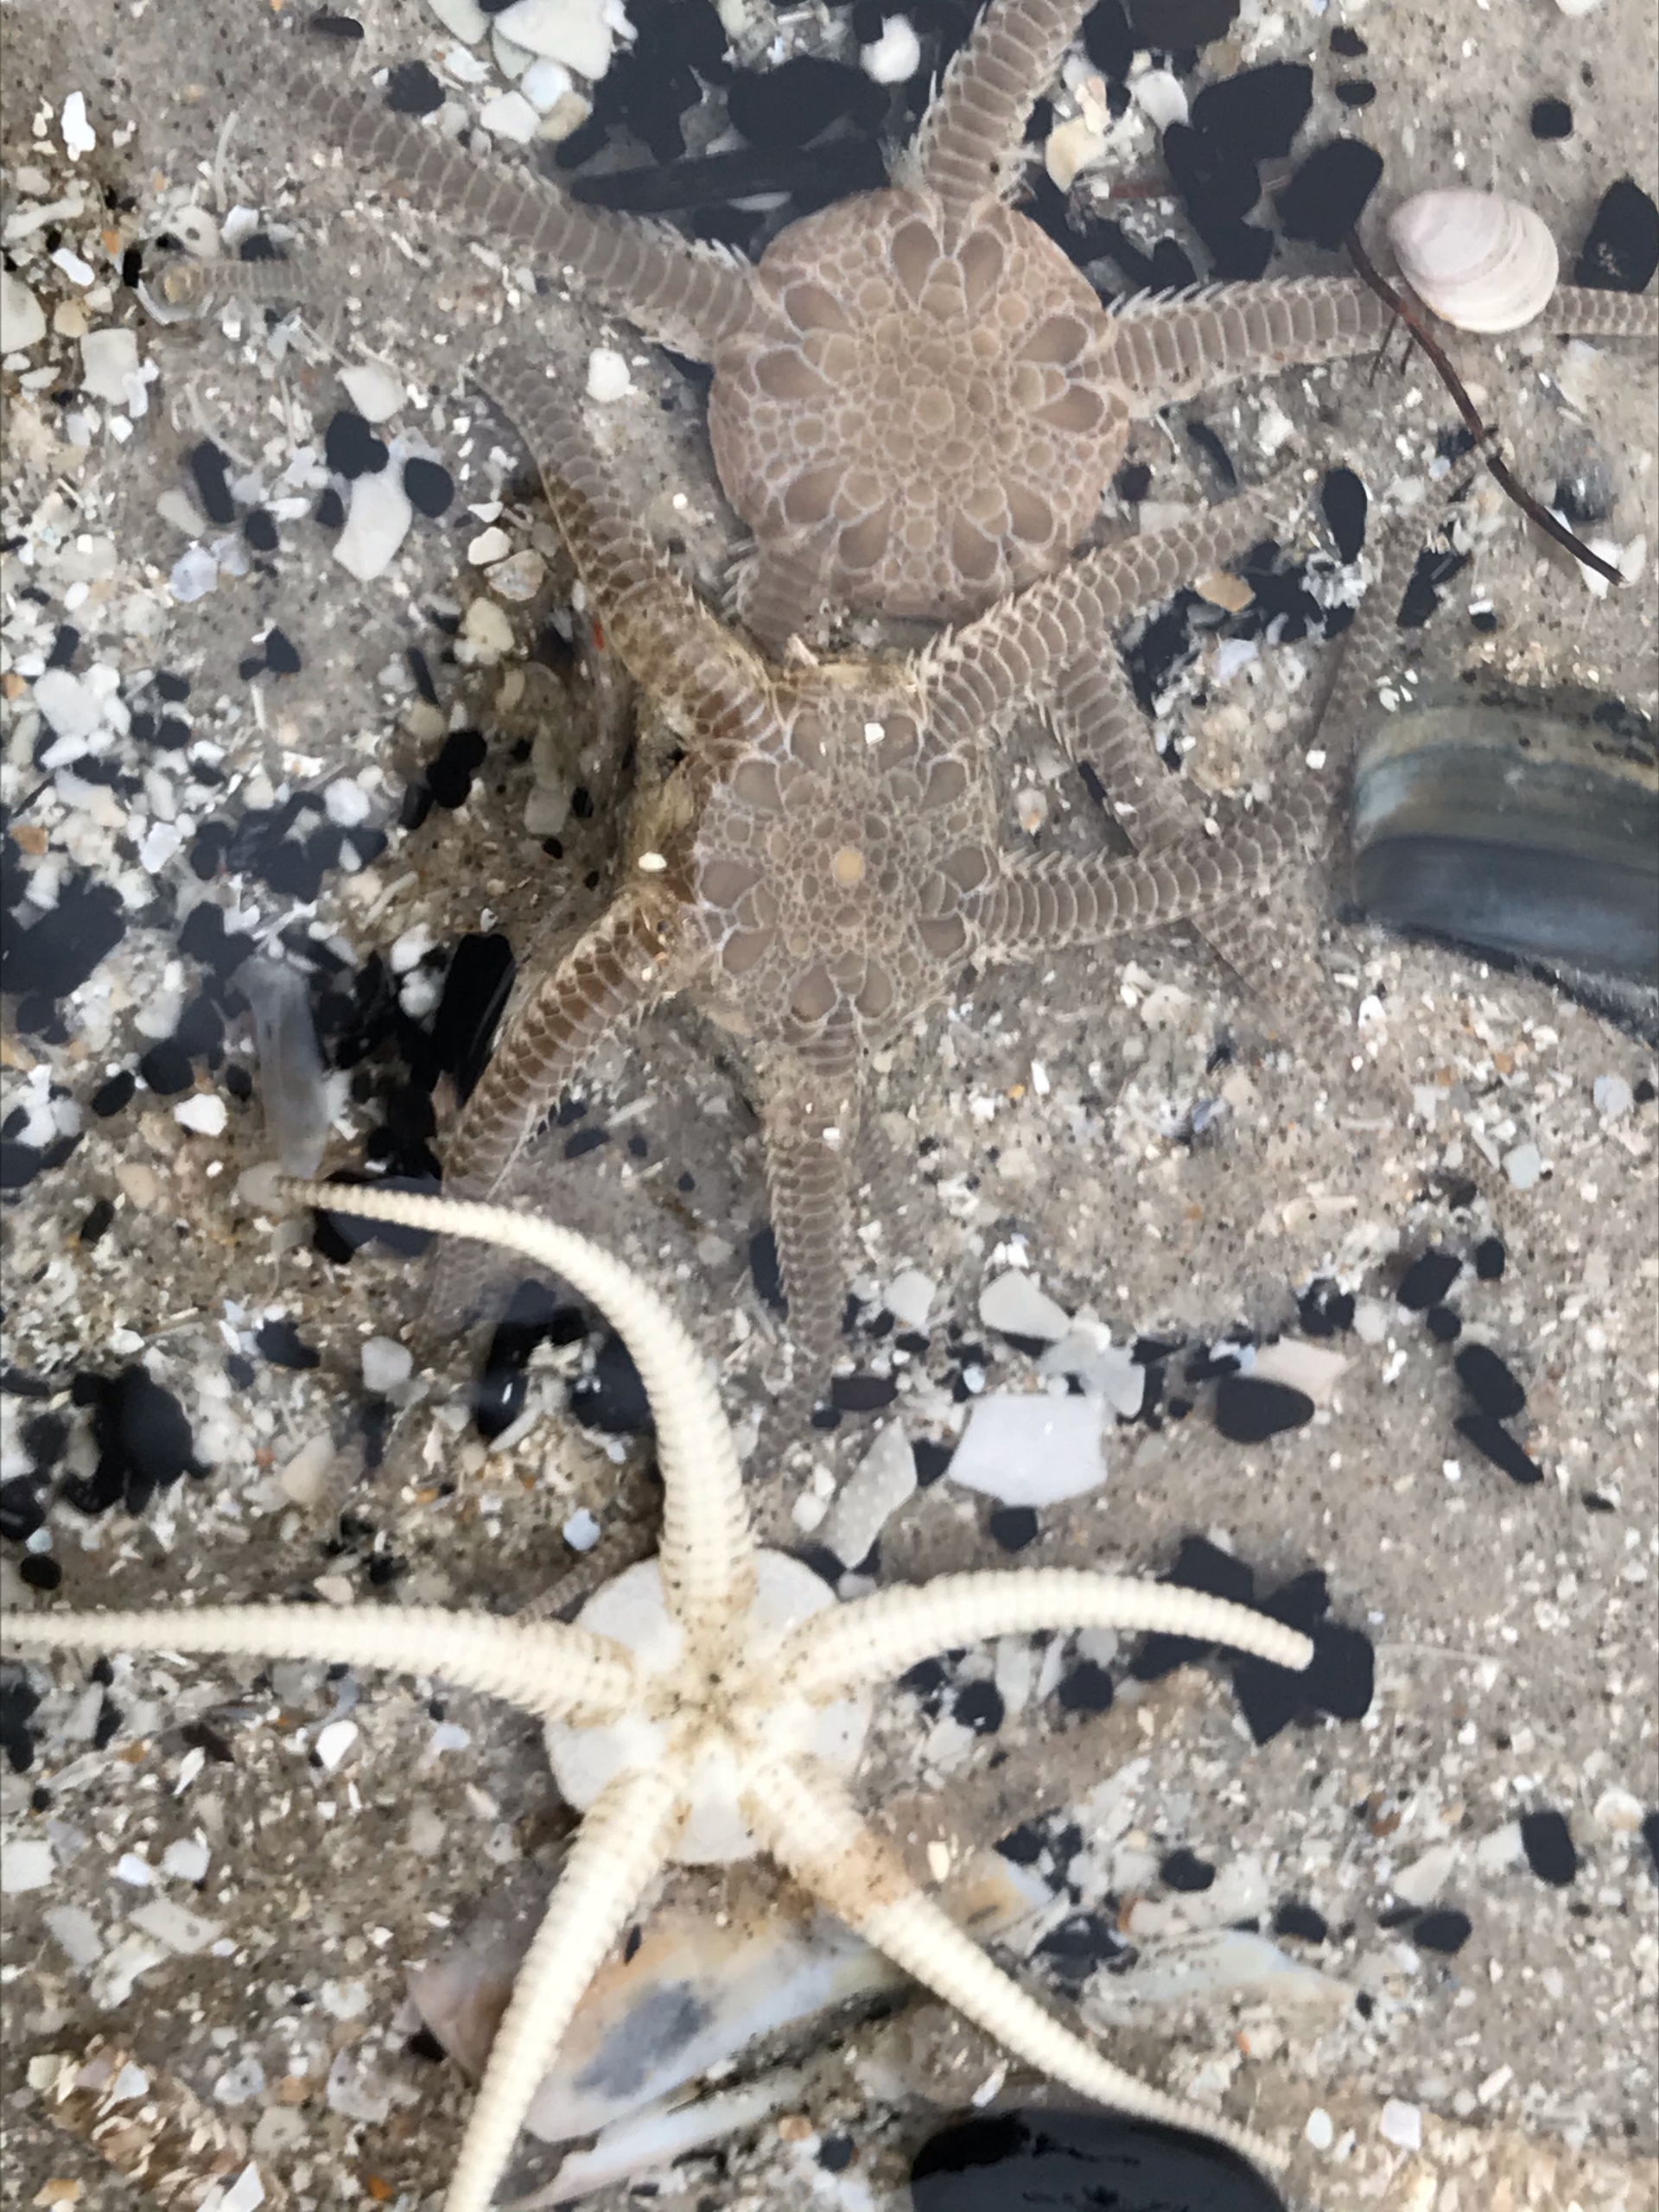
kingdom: Animalia
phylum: Echinodermata
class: Ophiuroidea
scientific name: Ophiuroidea
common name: Slangestjerner
